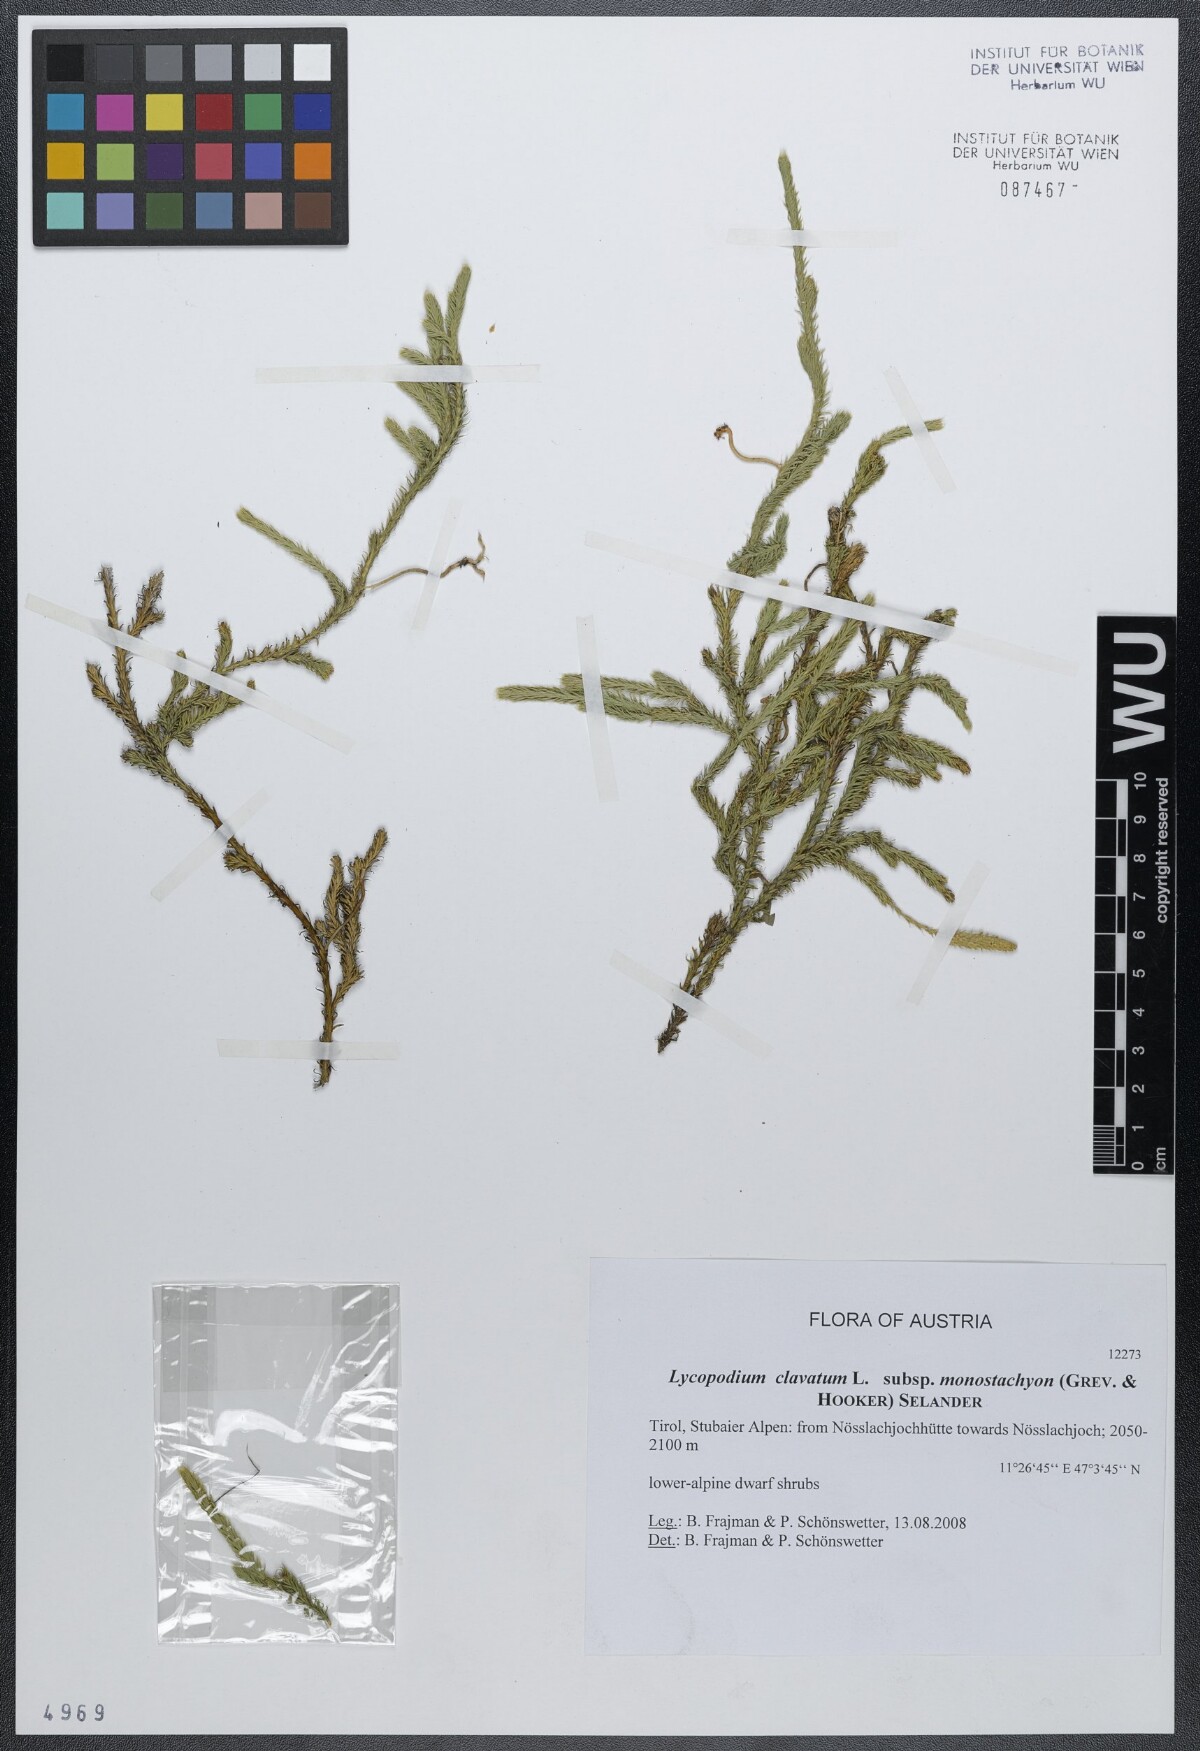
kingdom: Plantae
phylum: Tracheophyta
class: Lycopodiopsida
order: Lycopodiales
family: Lycopodiaceae
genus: Lycopodium
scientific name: Lycopodium lagopus
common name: One-cone clubmoss
